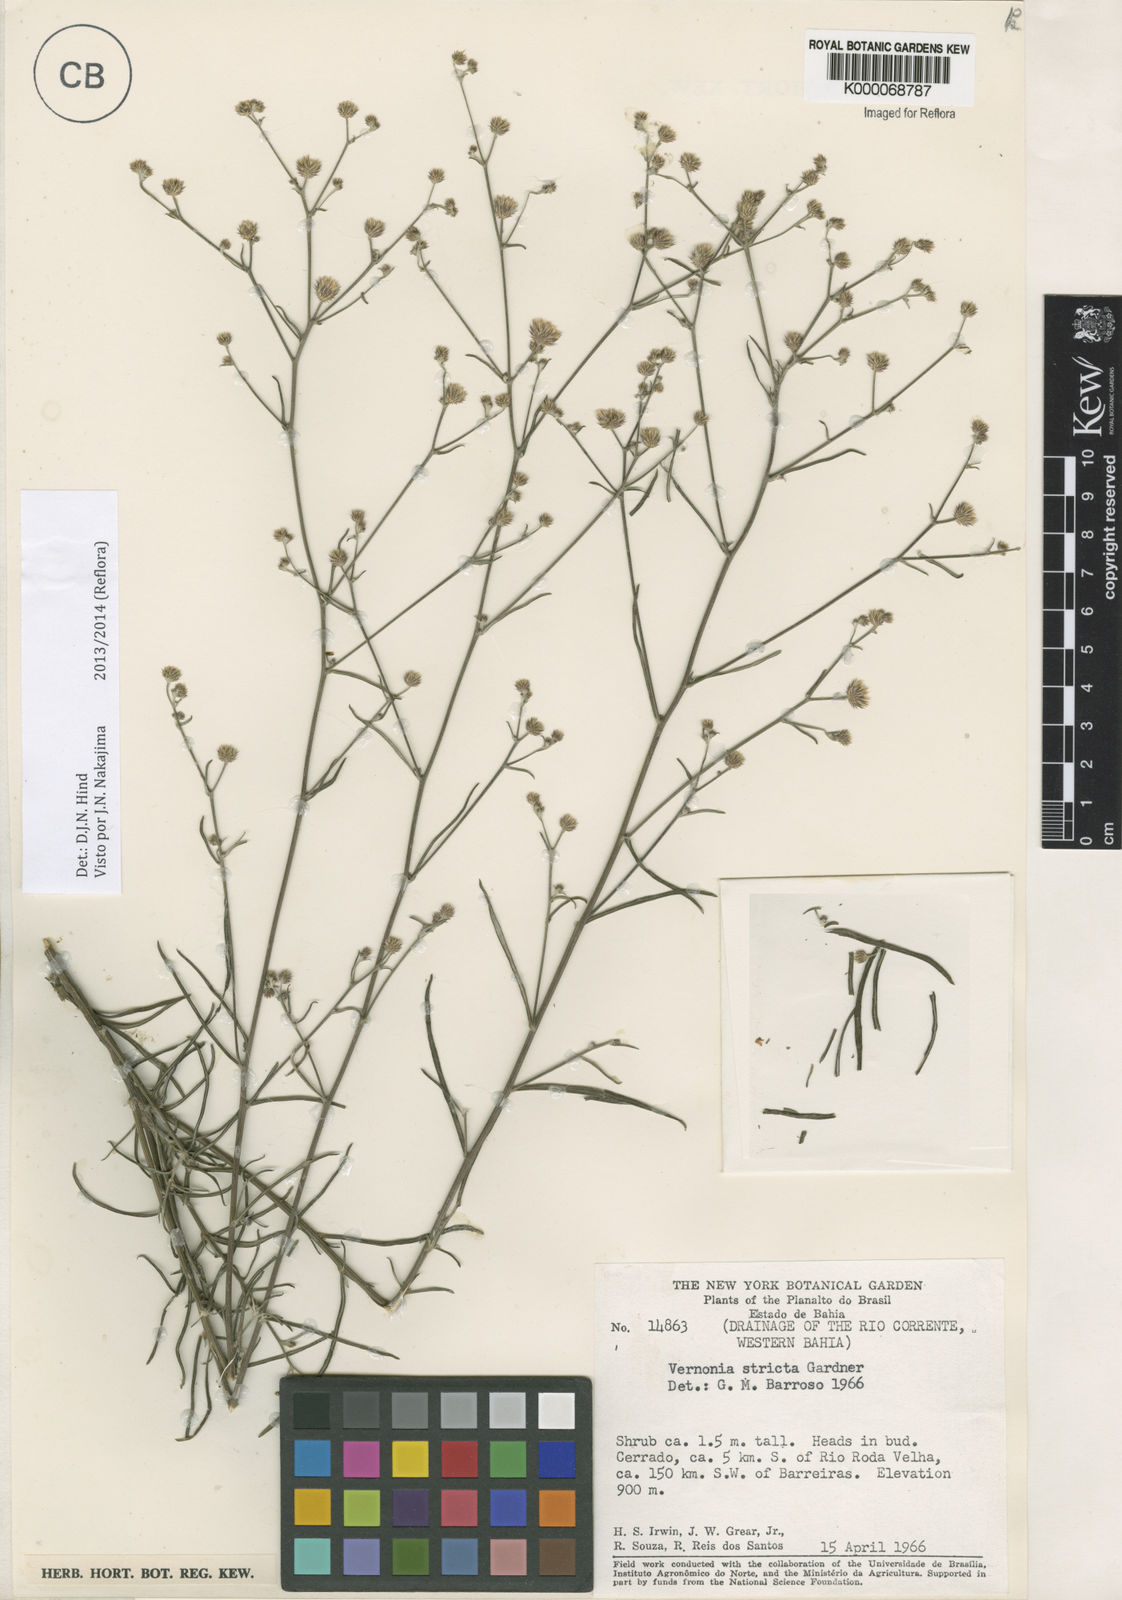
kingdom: Plantae
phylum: Tracheophyta
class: Magnoliopsida
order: Asterales
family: Asteraceae
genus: Echinocoryne
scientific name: Echinocoryne stricta
